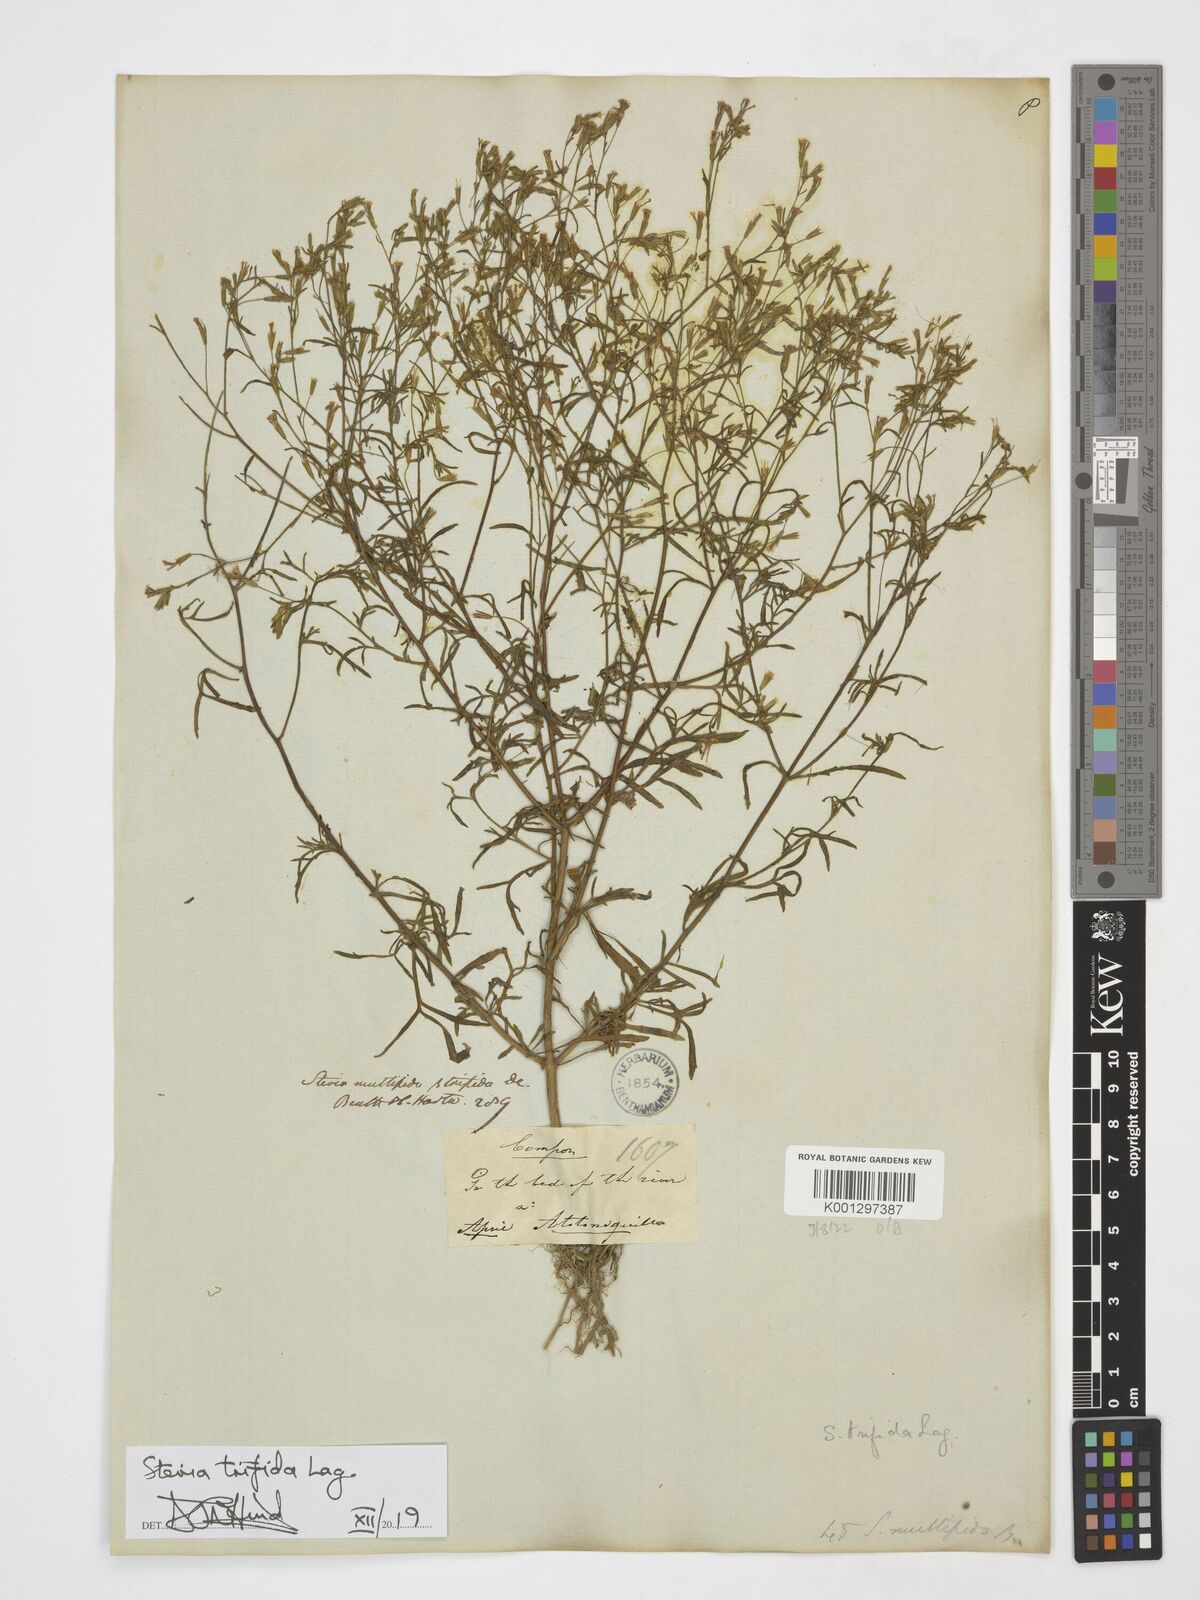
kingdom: Plantae
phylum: Tracheophyta
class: Magnoliopsida
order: Asterales
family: Asteraceae
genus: Stevia
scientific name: Stevia trifida
